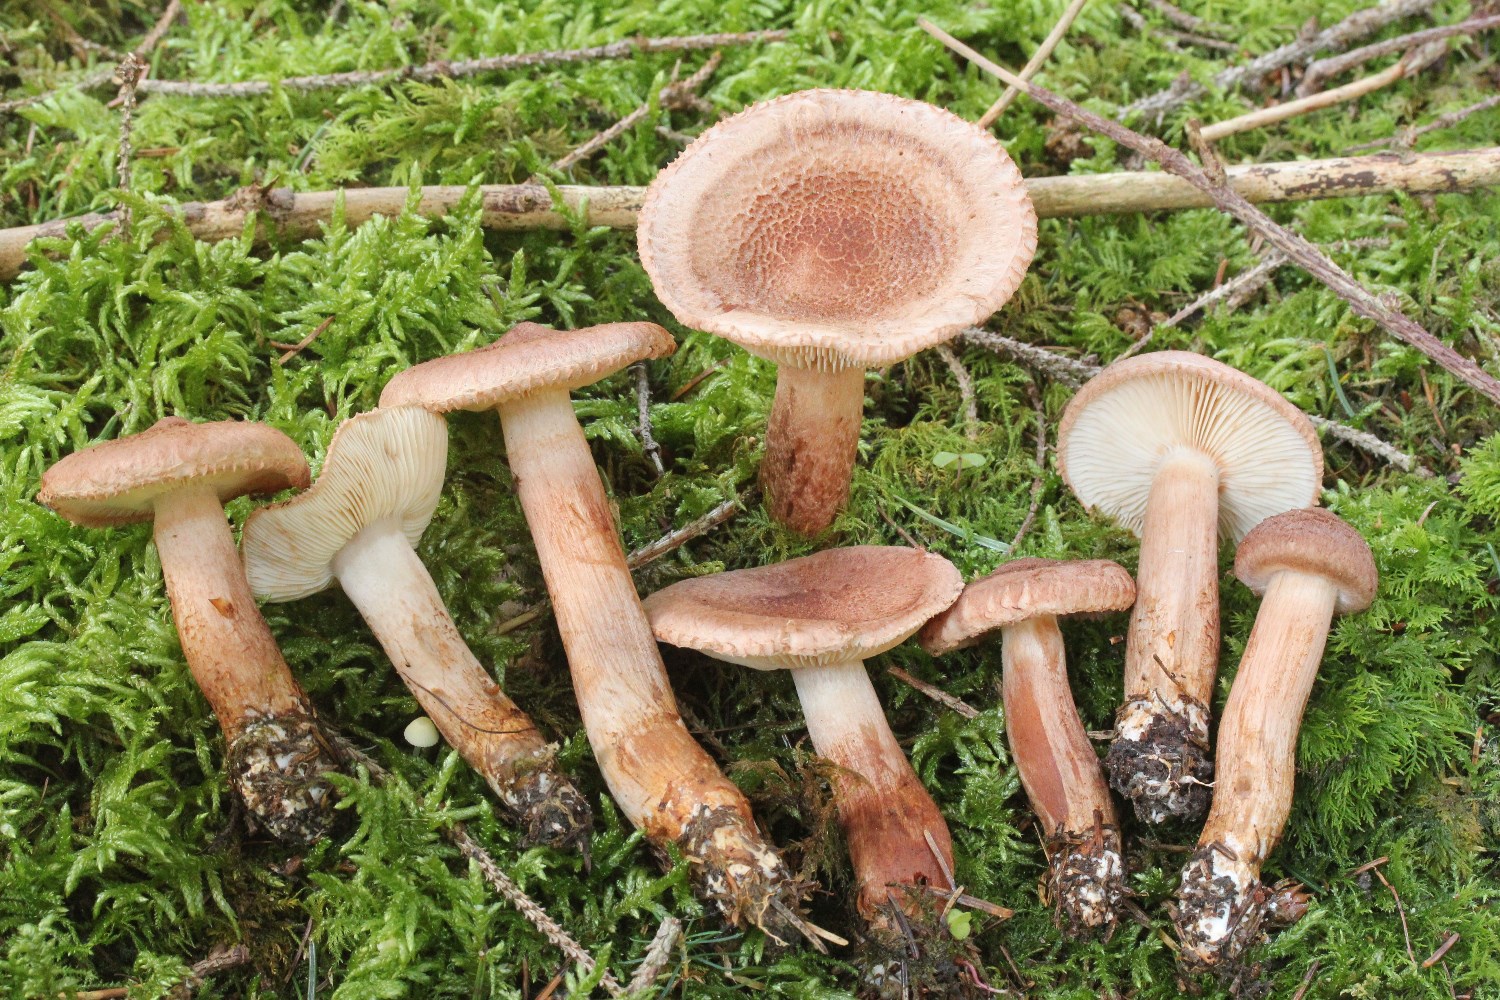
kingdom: Fungi
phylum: Basidiomycota
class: Agaricomycetes
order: Agaricales
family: Tricholomataceae
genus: Tricholoma
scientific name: Tricholoma vaccinum
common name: ko-ridderhat
